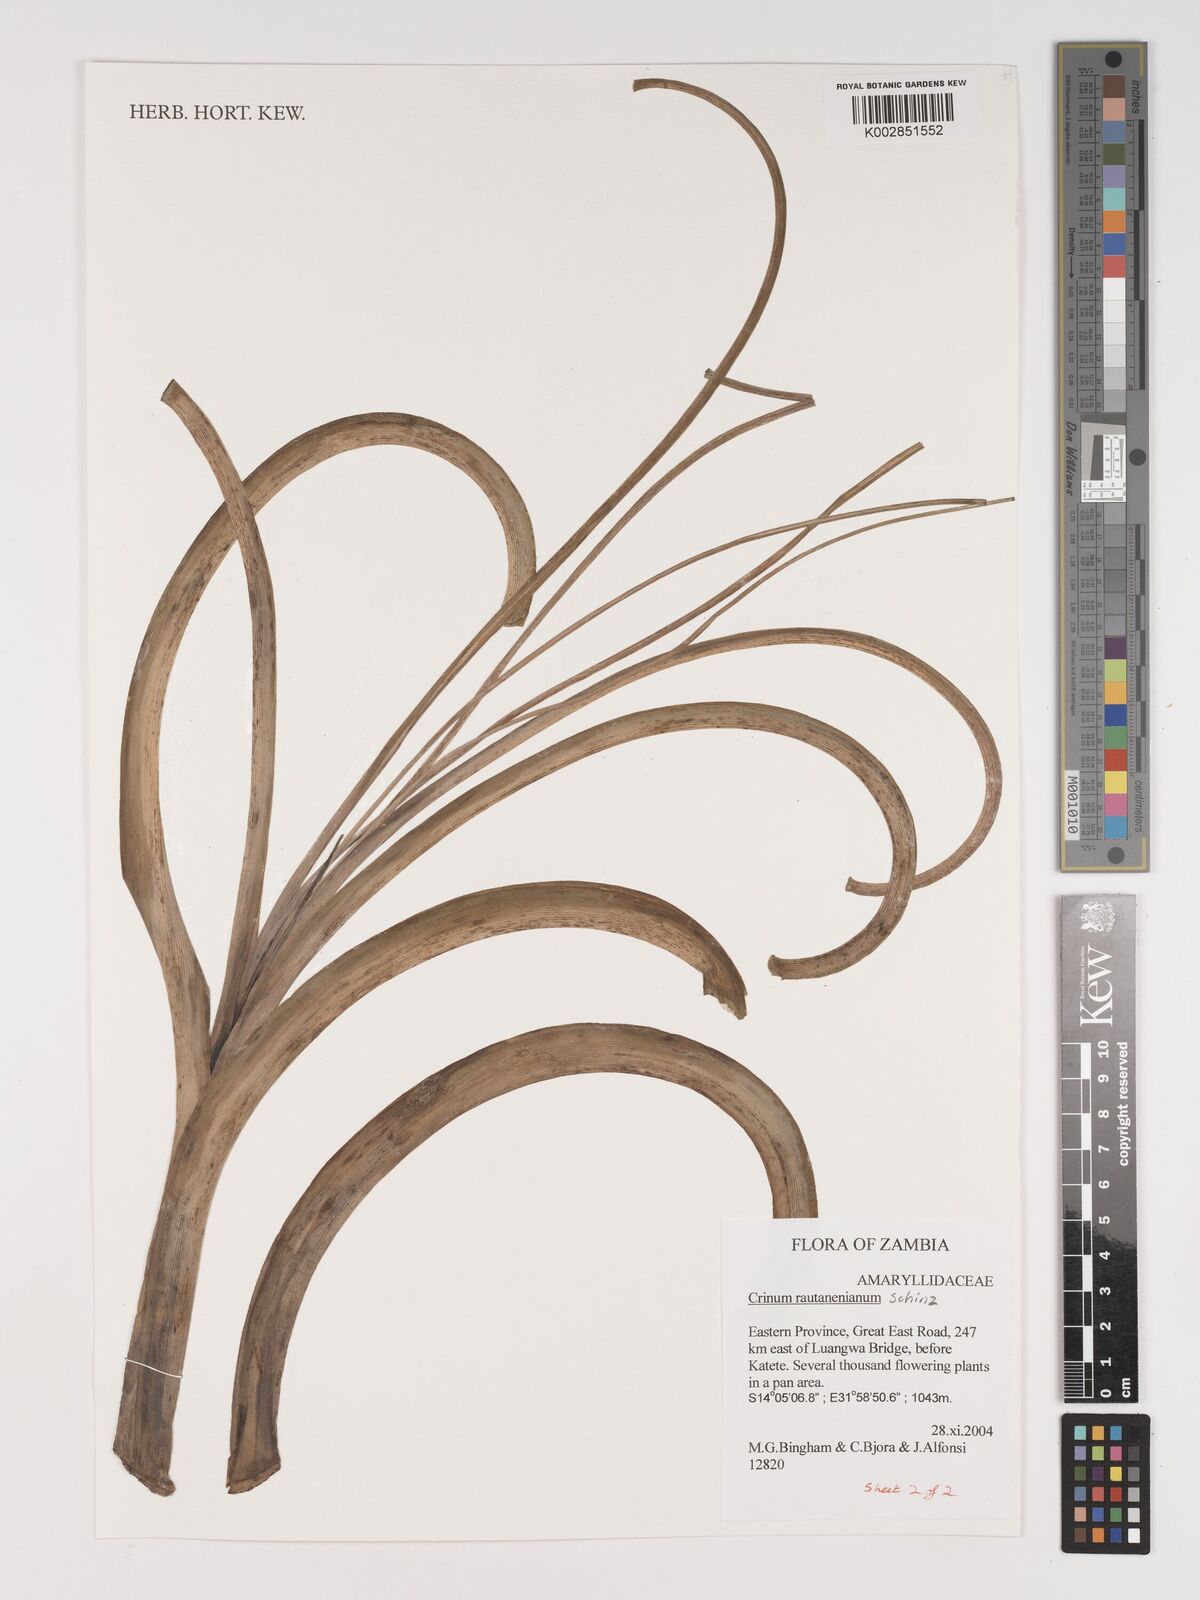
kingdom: Plantae
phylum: Tracheophyta
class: Liliopsida
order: Asparagales
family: Amaryllidaceae
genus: Crinum
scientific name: Crinum rautanenianum
